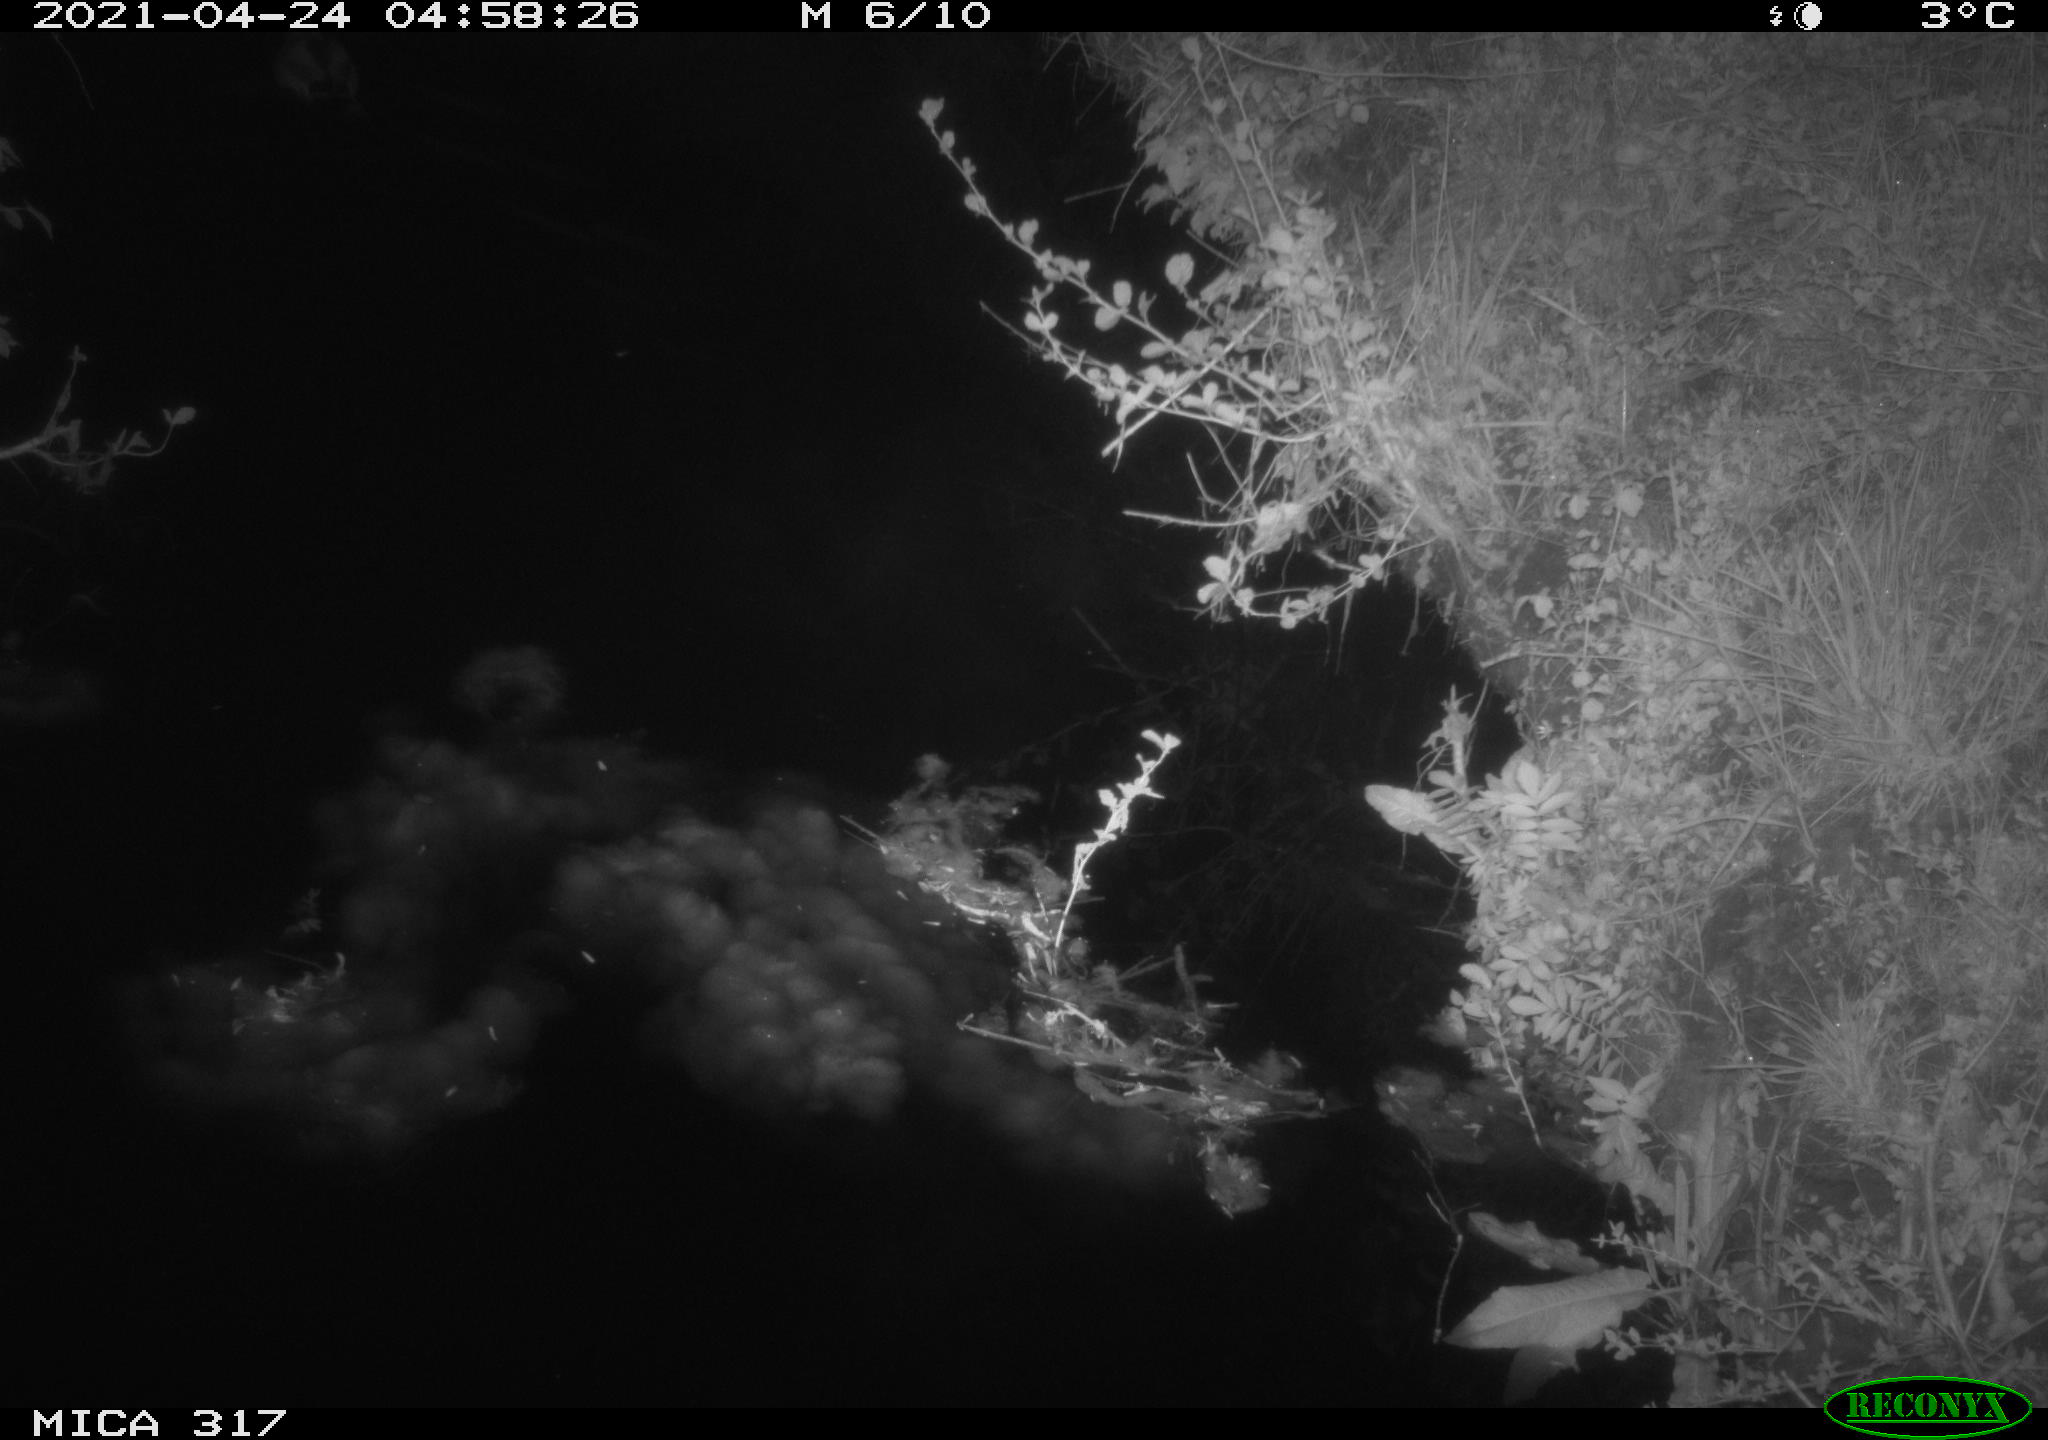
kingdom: Animalia
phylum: Chordata
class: Aves
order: Anseriformes
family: Anatidae
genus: Anas
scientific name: Anas
